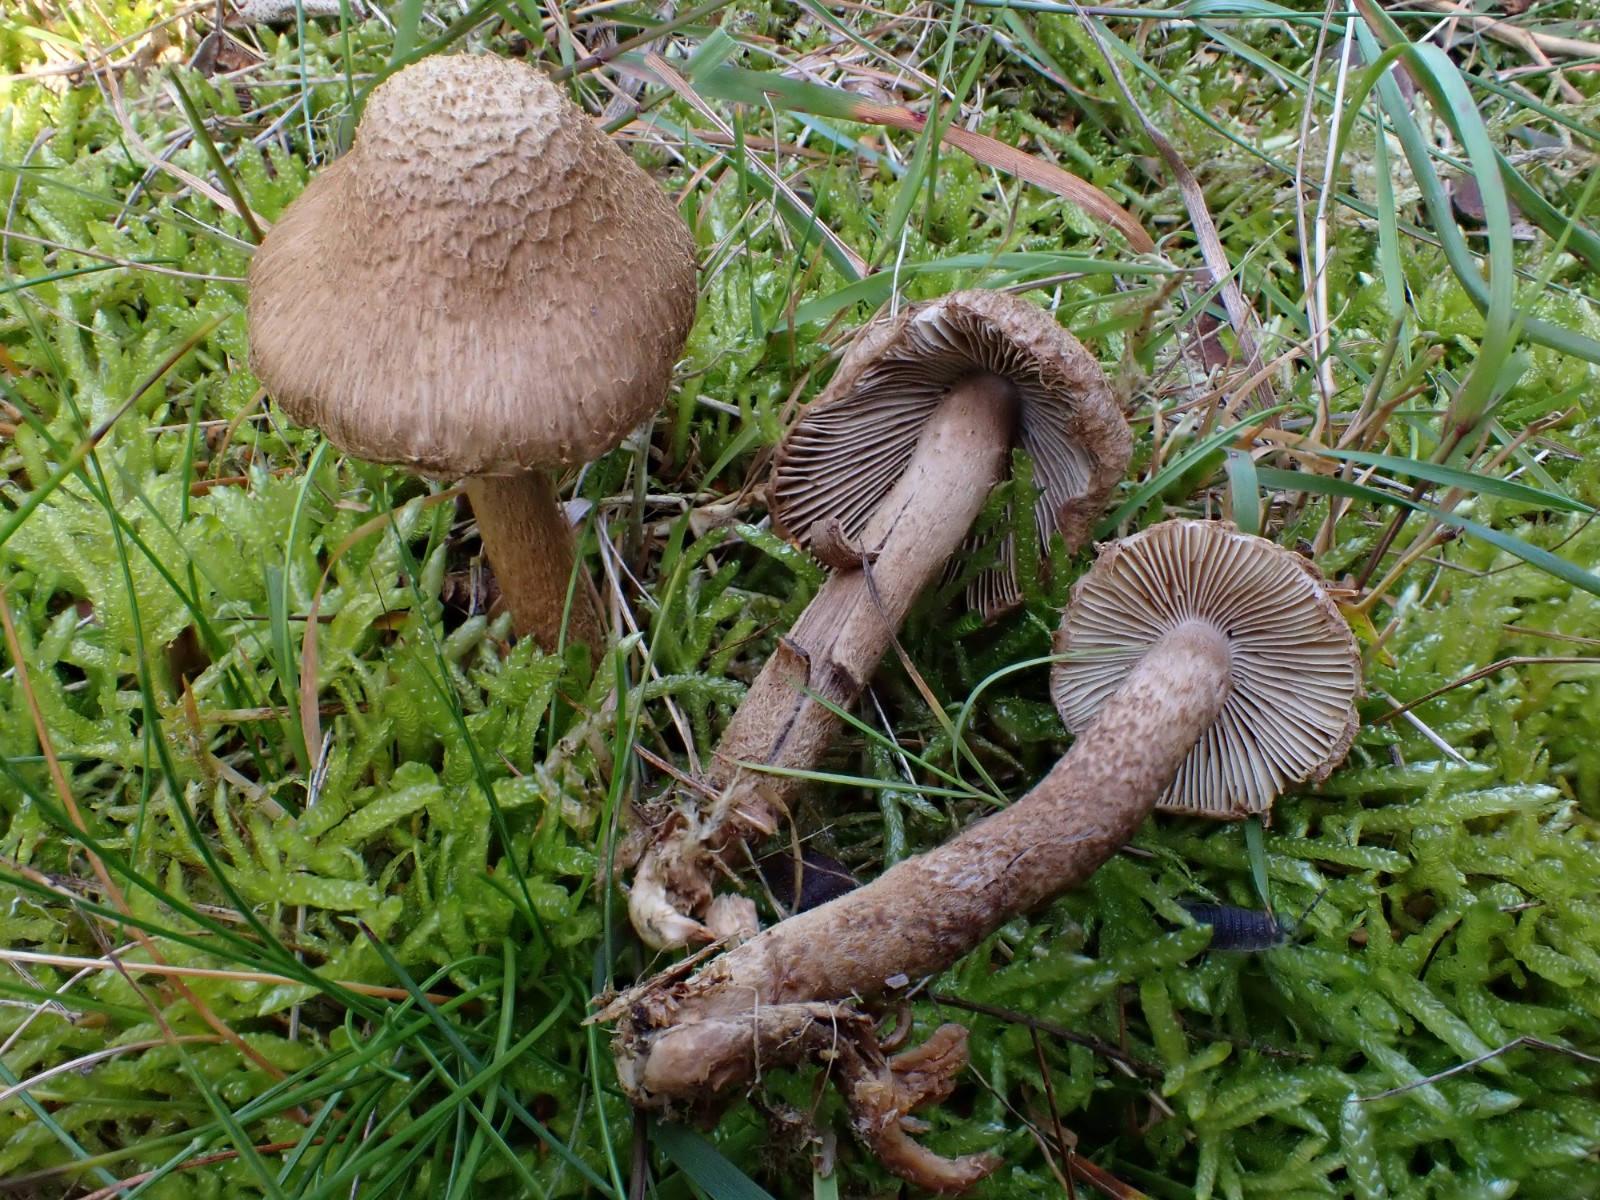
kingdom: Fungi
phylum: Basidiomycota
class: Agaricomycetes
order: Agaricales
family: Inocybaceae
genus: Inocybe
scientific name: Inocybe
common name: trævlhat
